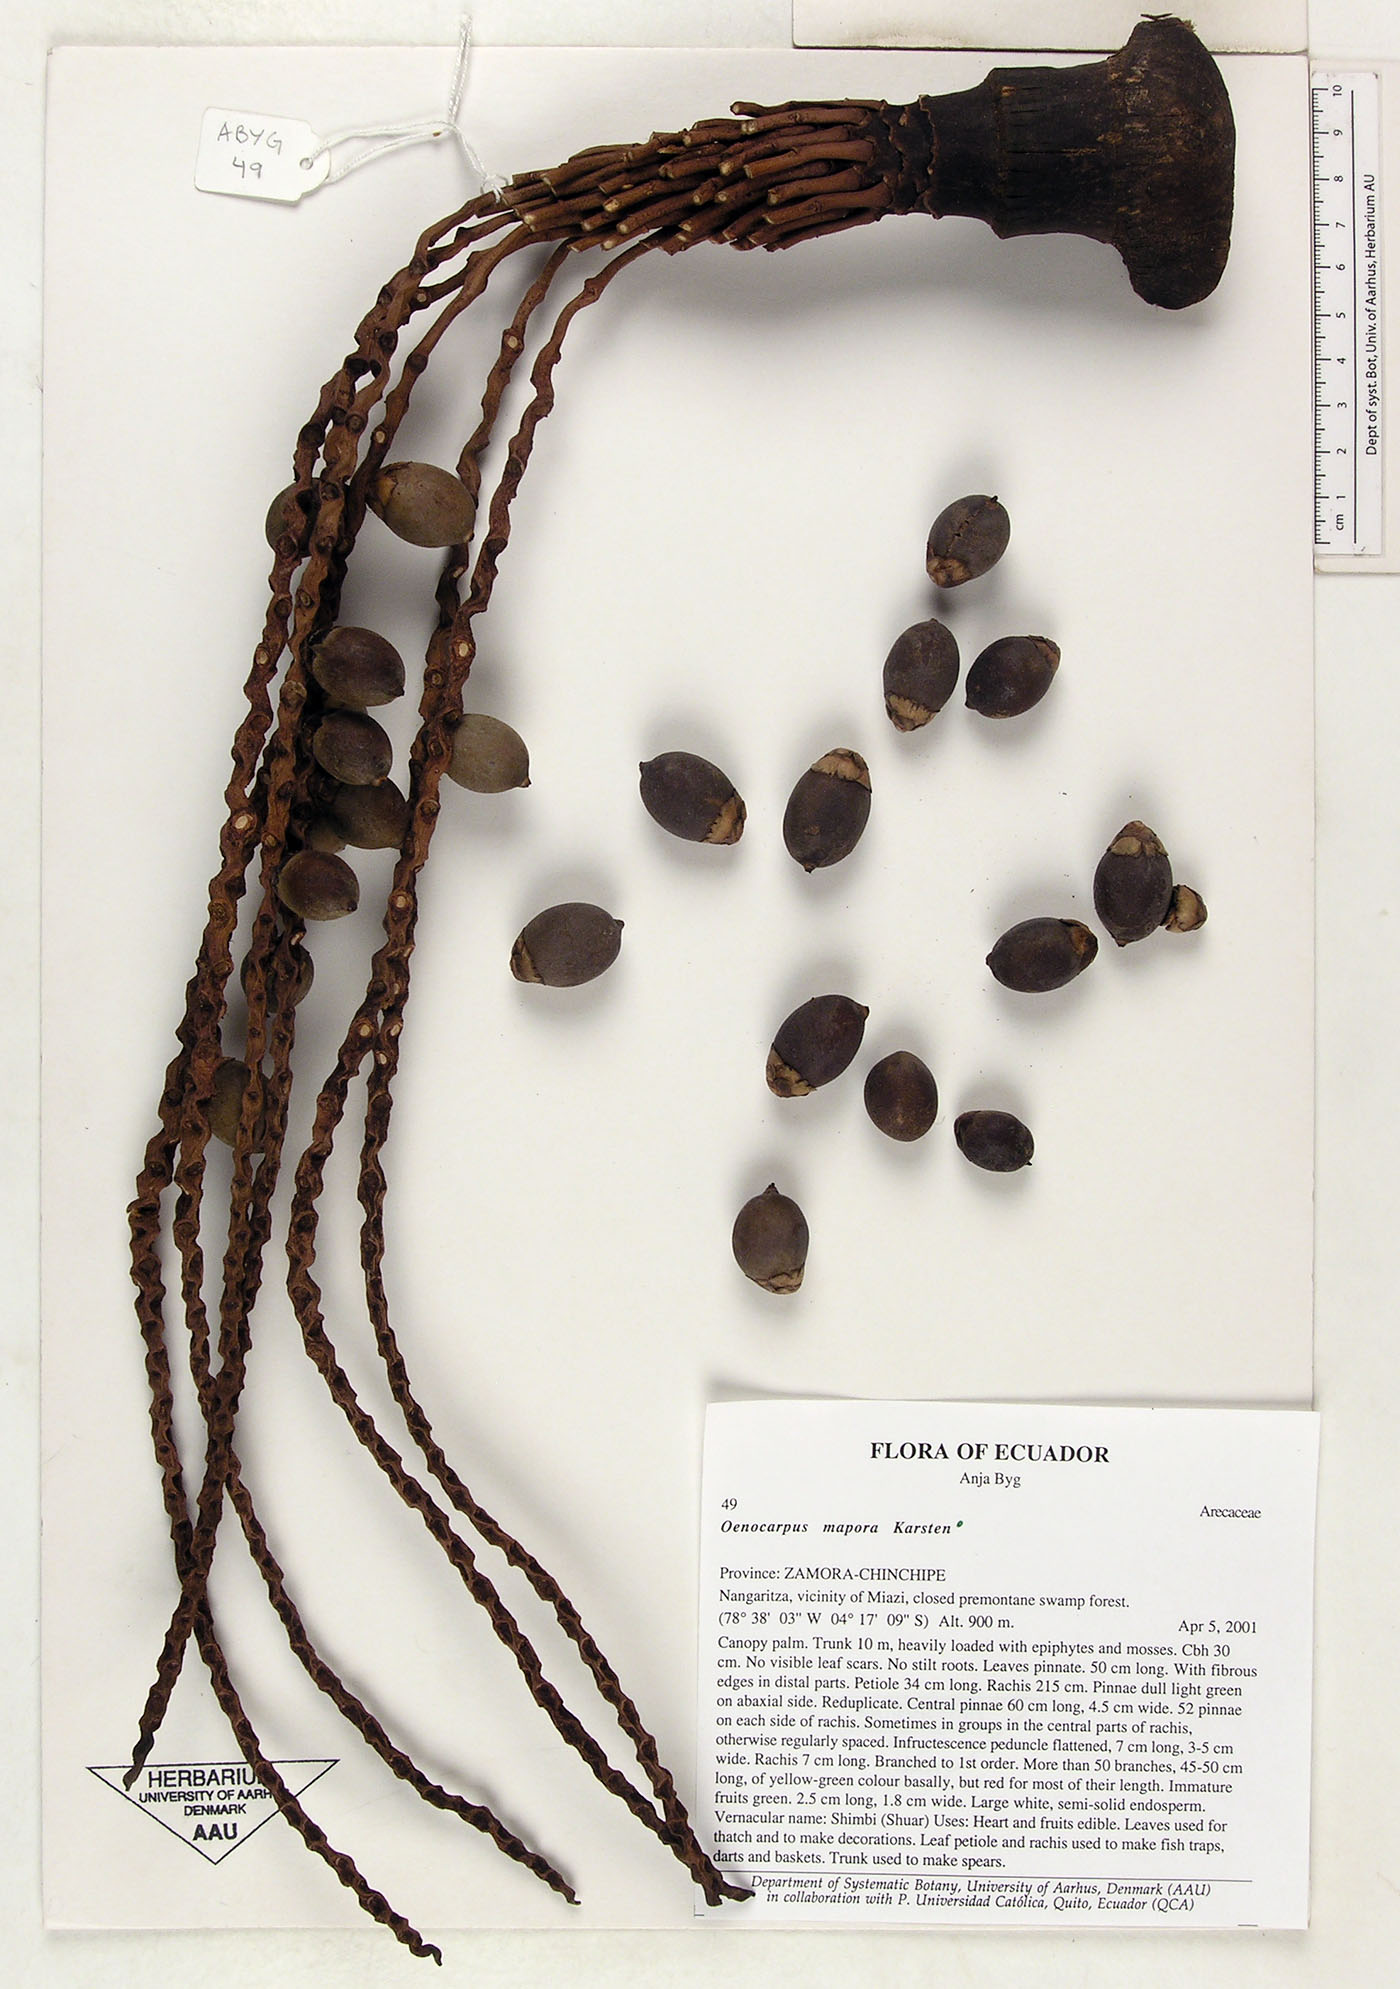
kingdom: Plantae
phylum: Tracheophyta
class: Liliopsida
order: Arecales
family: Arecaceae
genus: Oenocarpus
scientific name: Oenocarpus mapora
